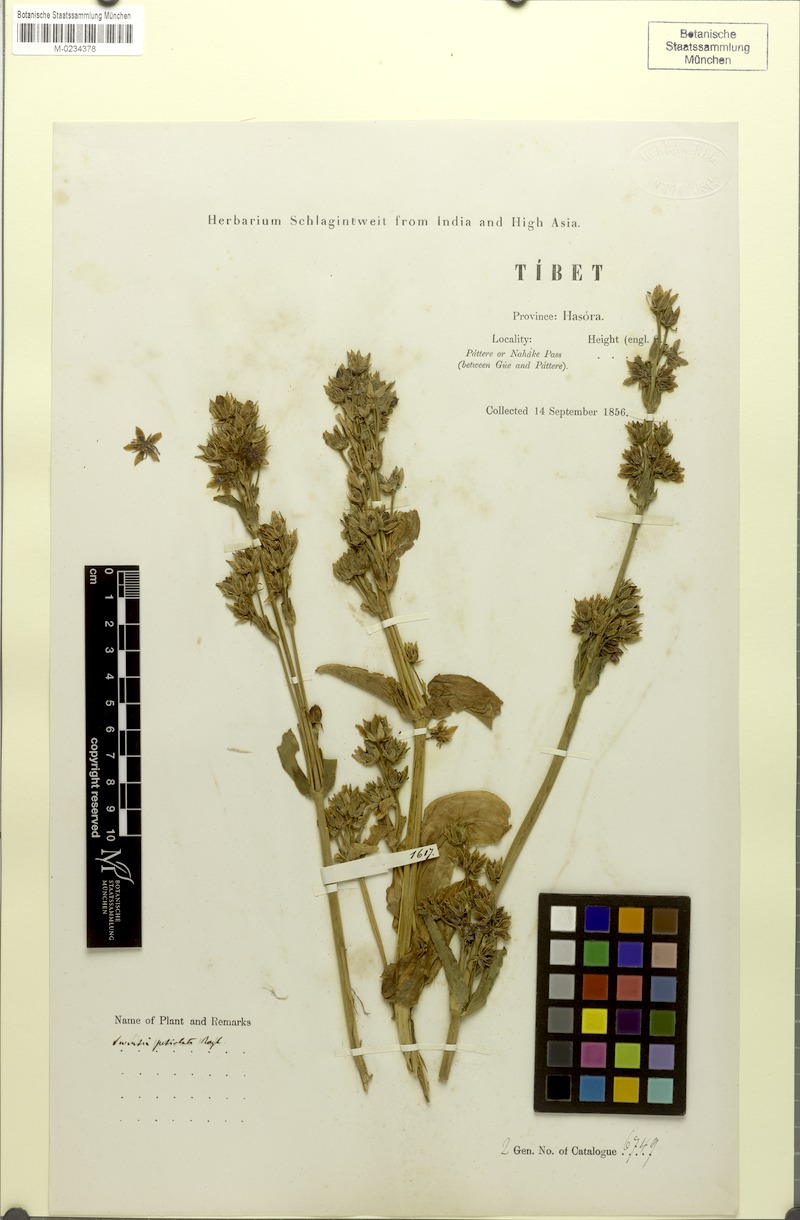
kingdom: Plantae
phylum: Tracheophyta
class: Magnoliopsida
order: Gentianales
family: Gentianaceae
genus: Swertia
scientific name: Swertia petiolata
